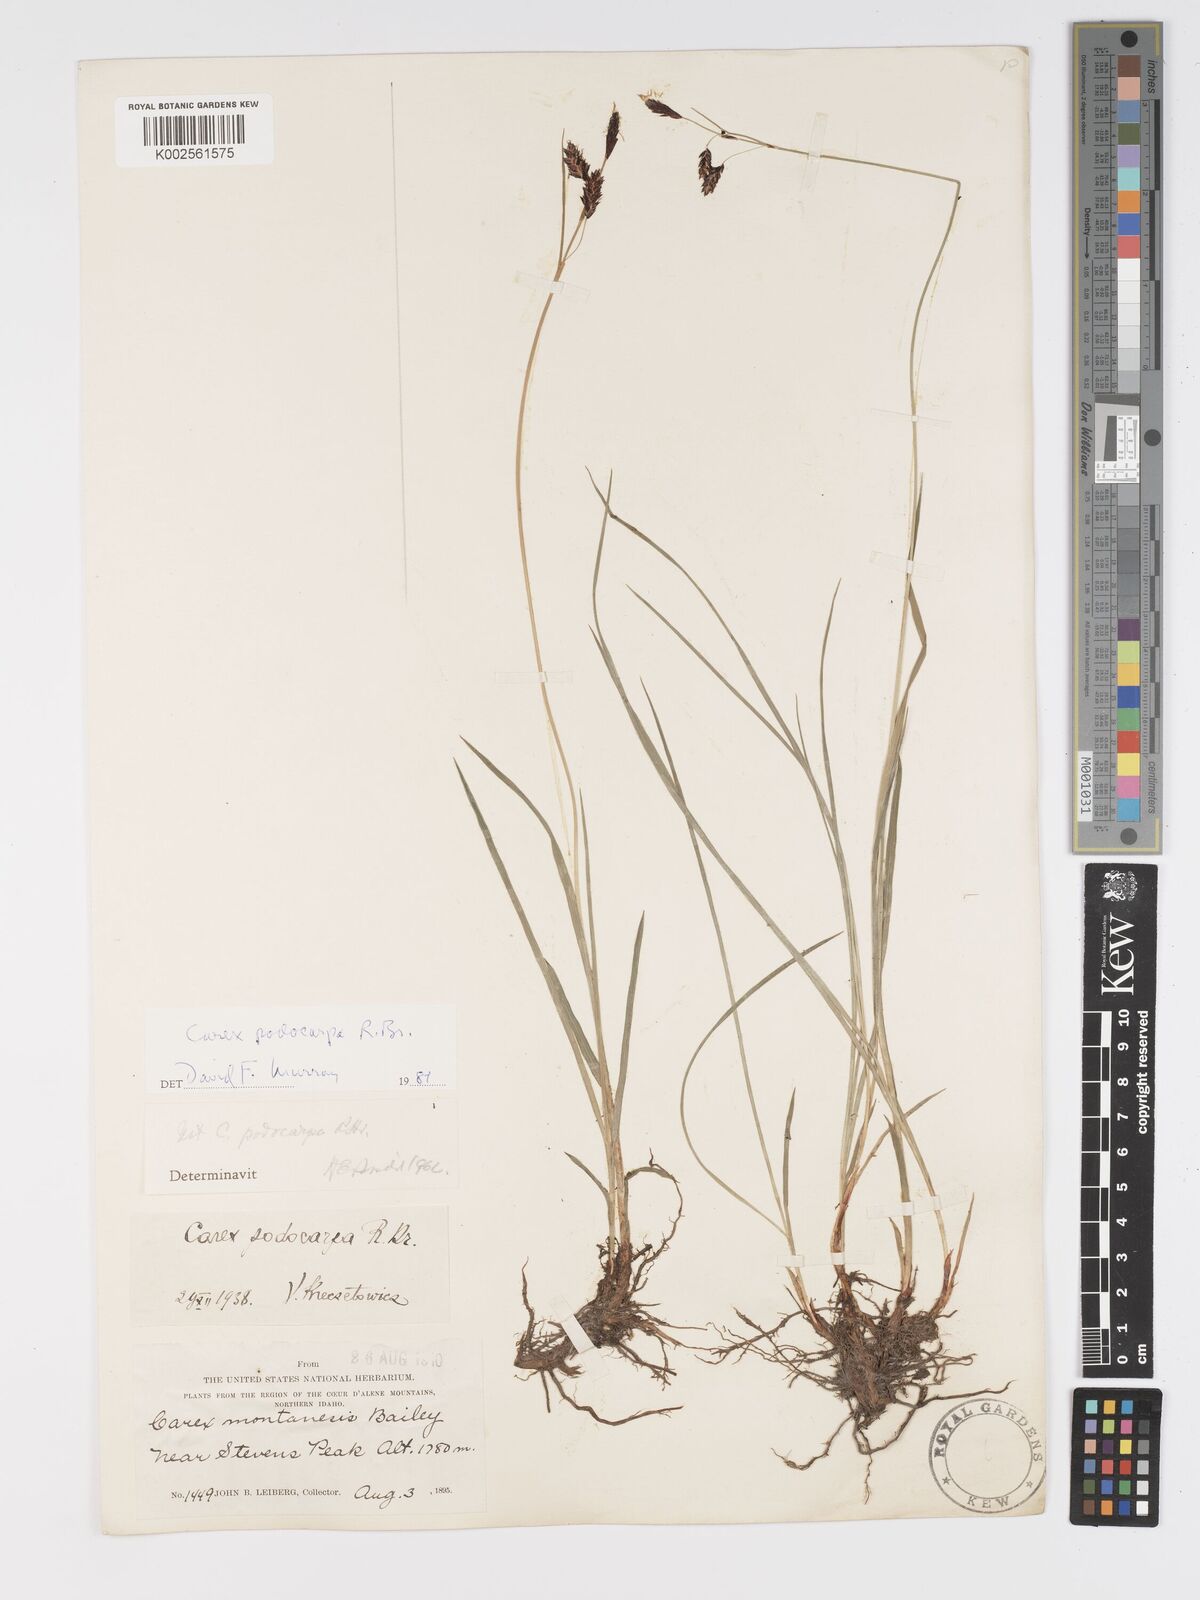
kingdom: Plantae
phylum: Tracheophyta
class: Liliopsida
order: Poales
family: Cyperaceae
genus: Carex
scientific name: Carex podocarpa
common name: Alpine sedge
